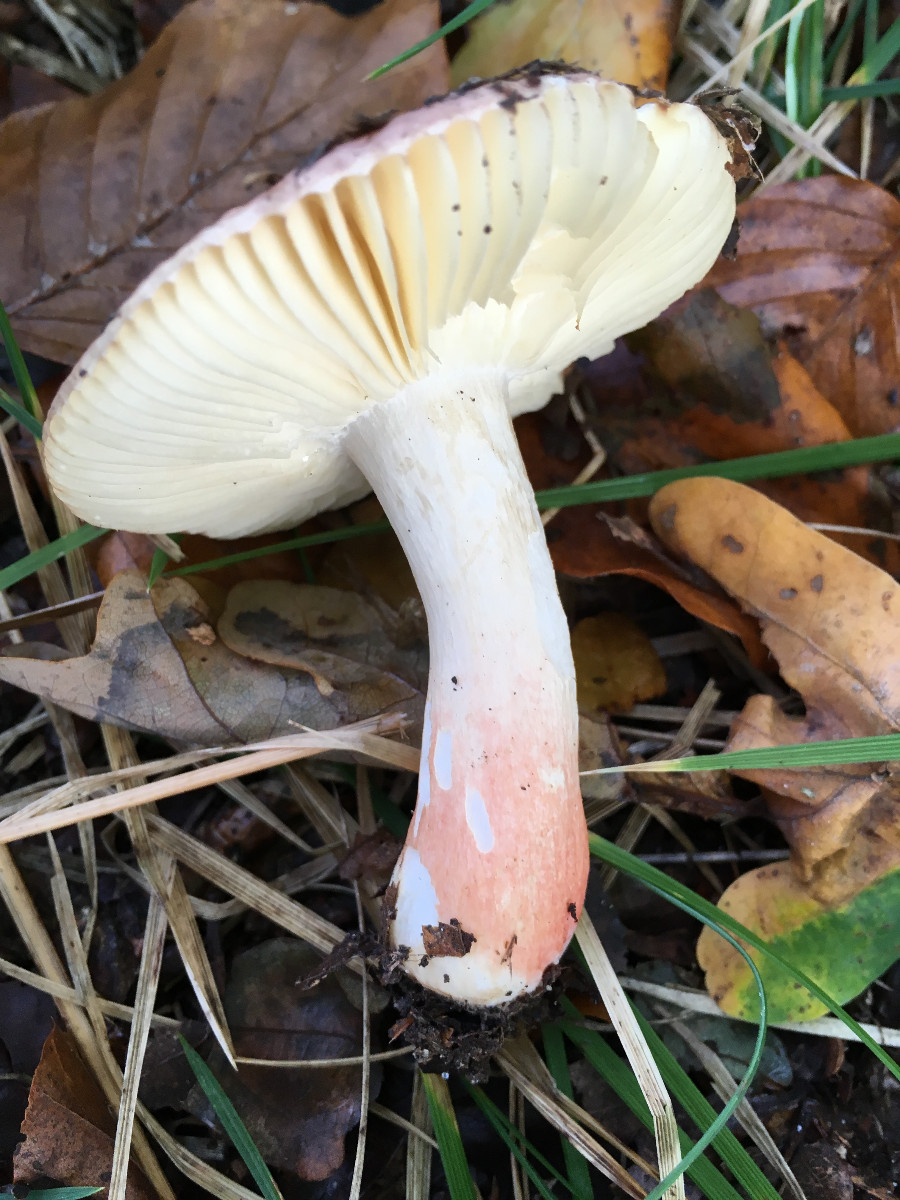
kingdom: Fungi
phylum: Basidiomycota
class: Agaricomycetes
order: Russulales
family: Russulaceae
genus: Russula
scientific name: Russula faginea
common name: bøge-skørhat
